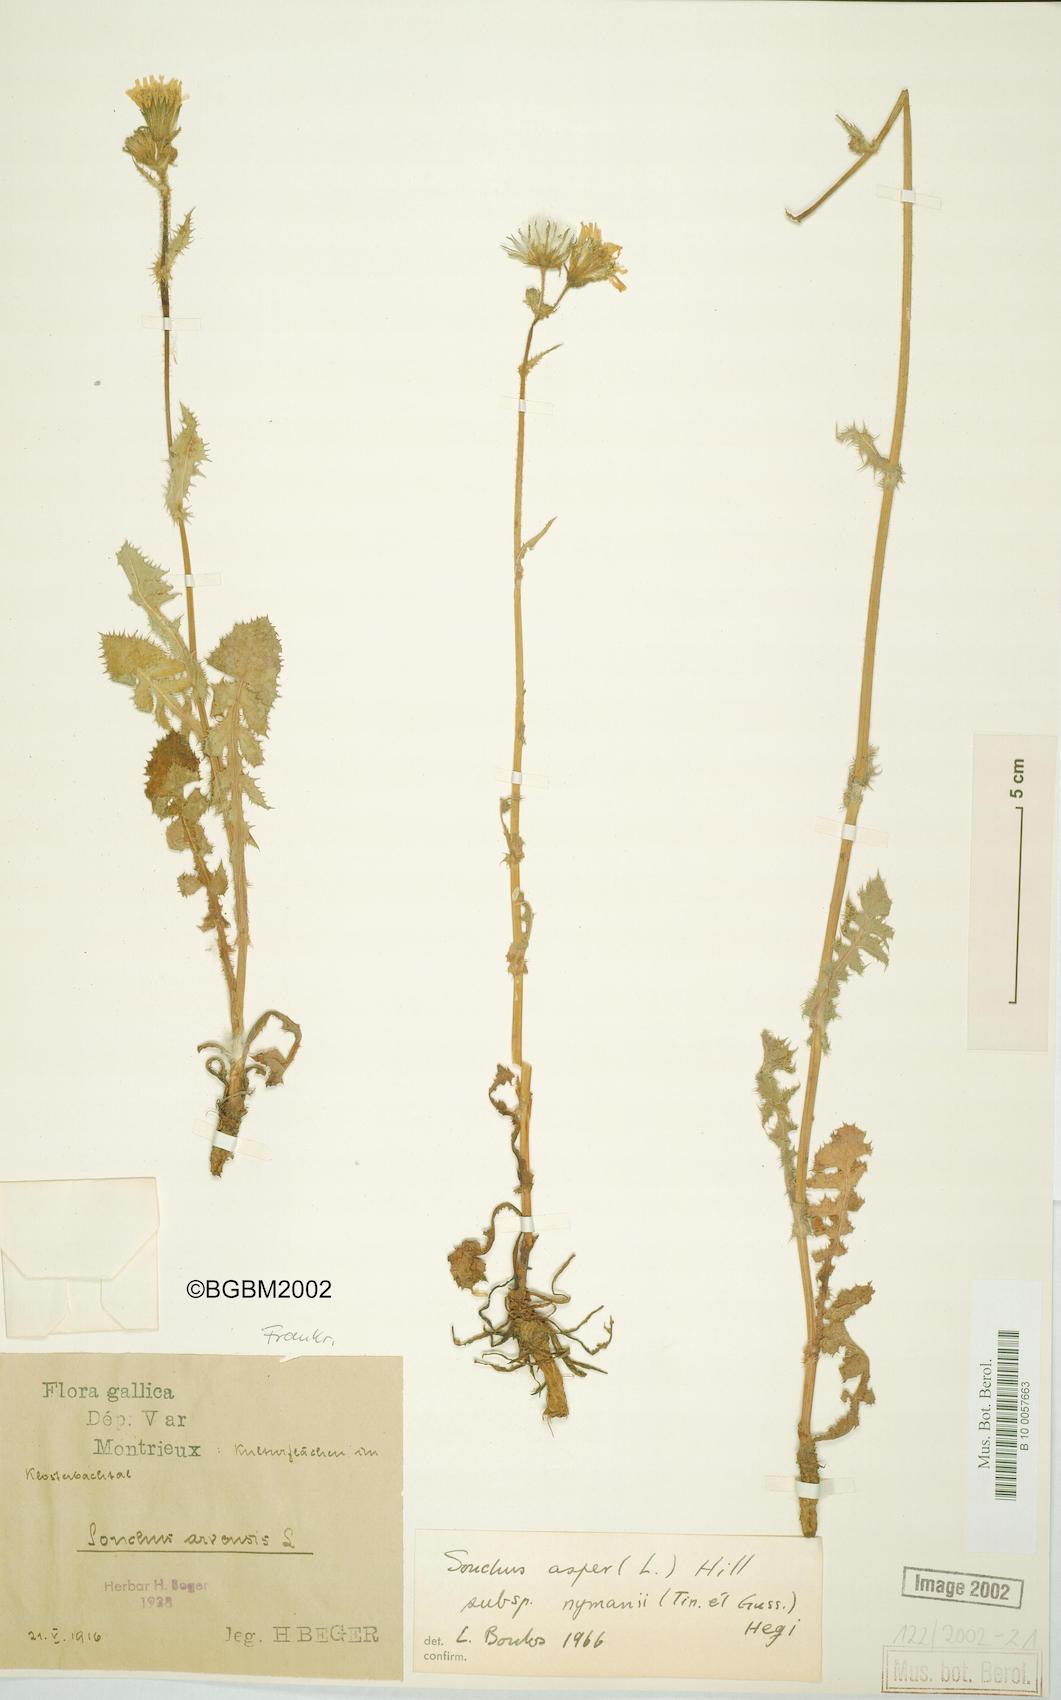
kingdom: Plantae
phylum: Tracheophyta
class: Magnoliopsida
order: Asterales
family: Asteraceae
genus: Sonchus
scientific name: Sonchus asper
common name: Prickly sow-thistle
